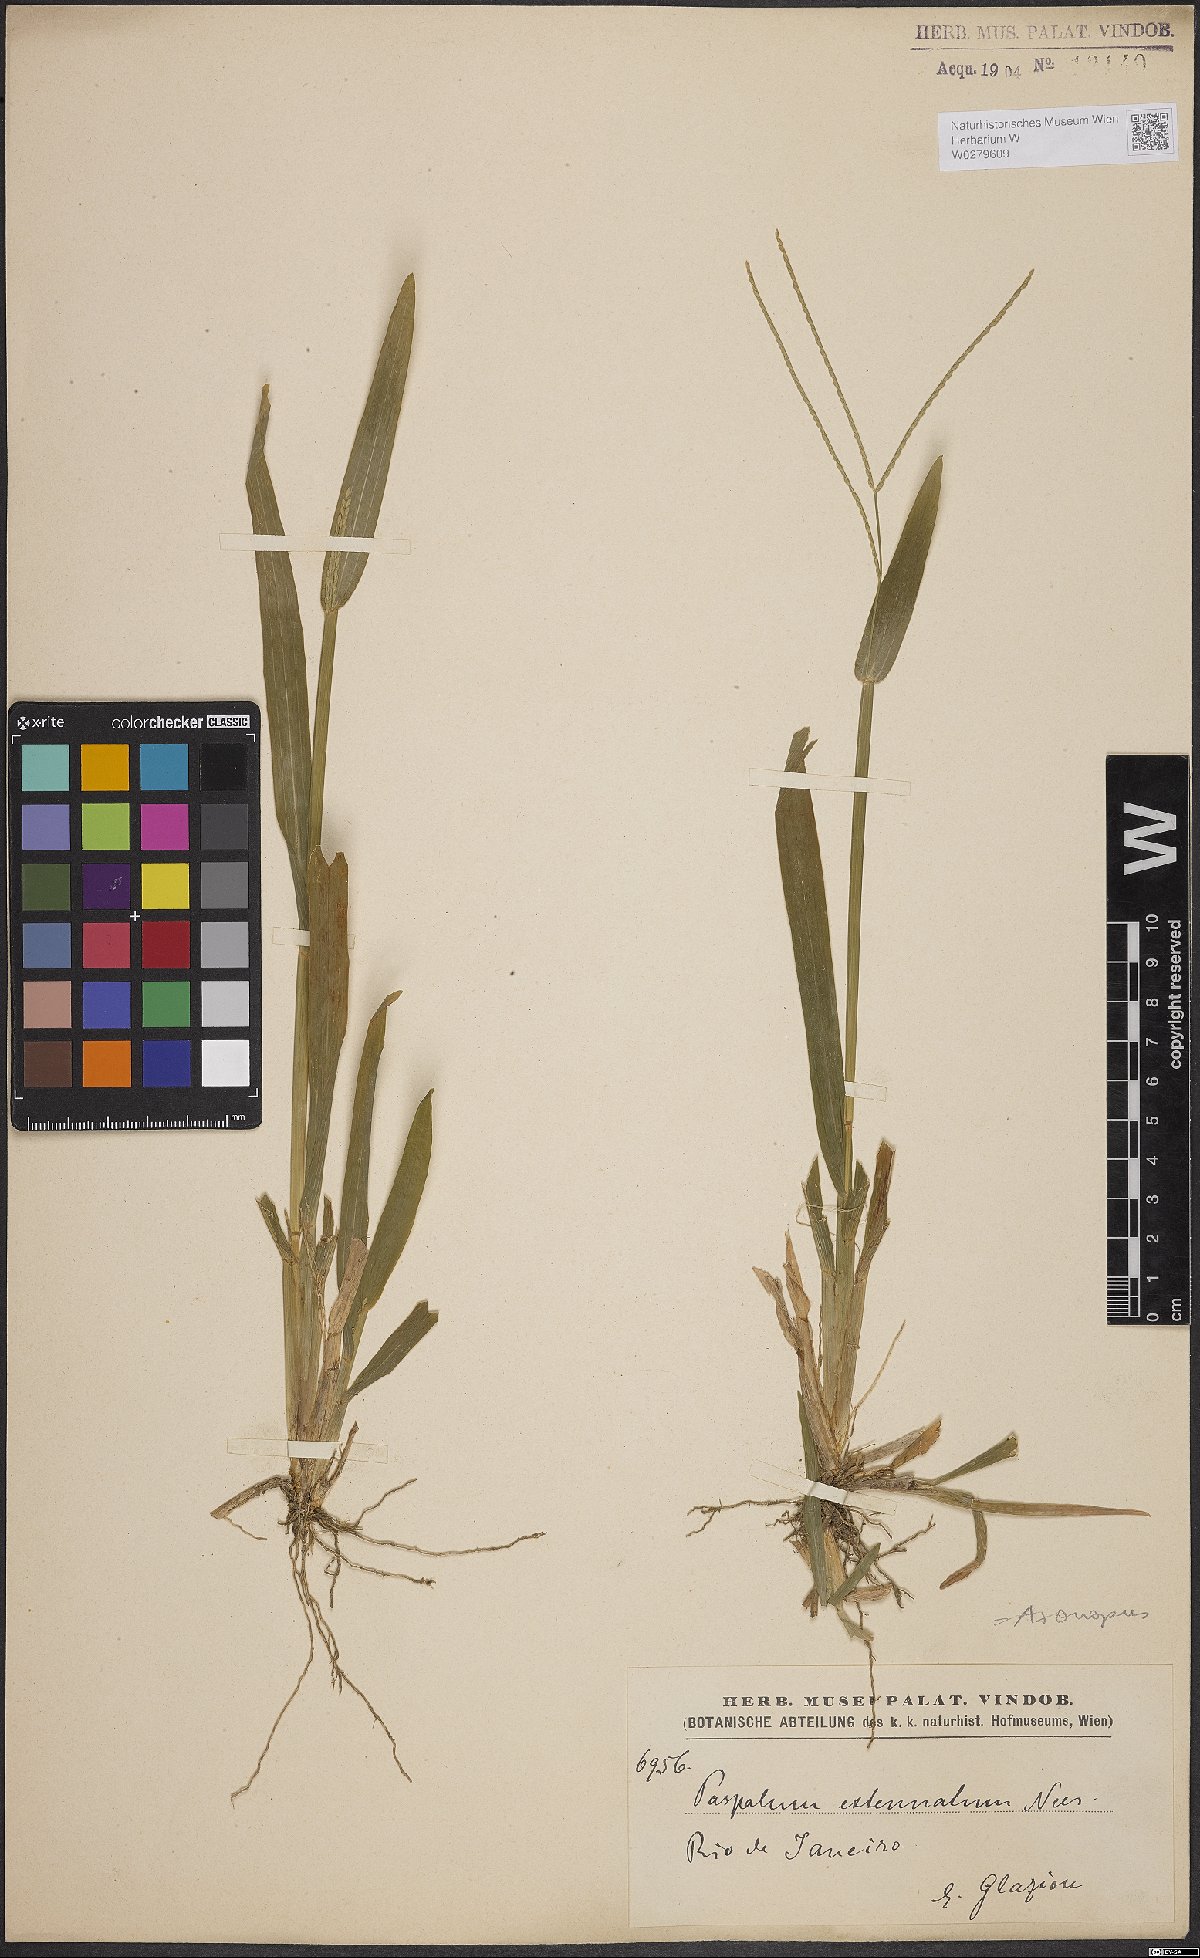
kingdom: Plantae
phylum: Tracheophyta
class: Liliopsida
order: Poales
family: Poaceae
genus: Axonopus
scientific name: Axonopus capillaris
